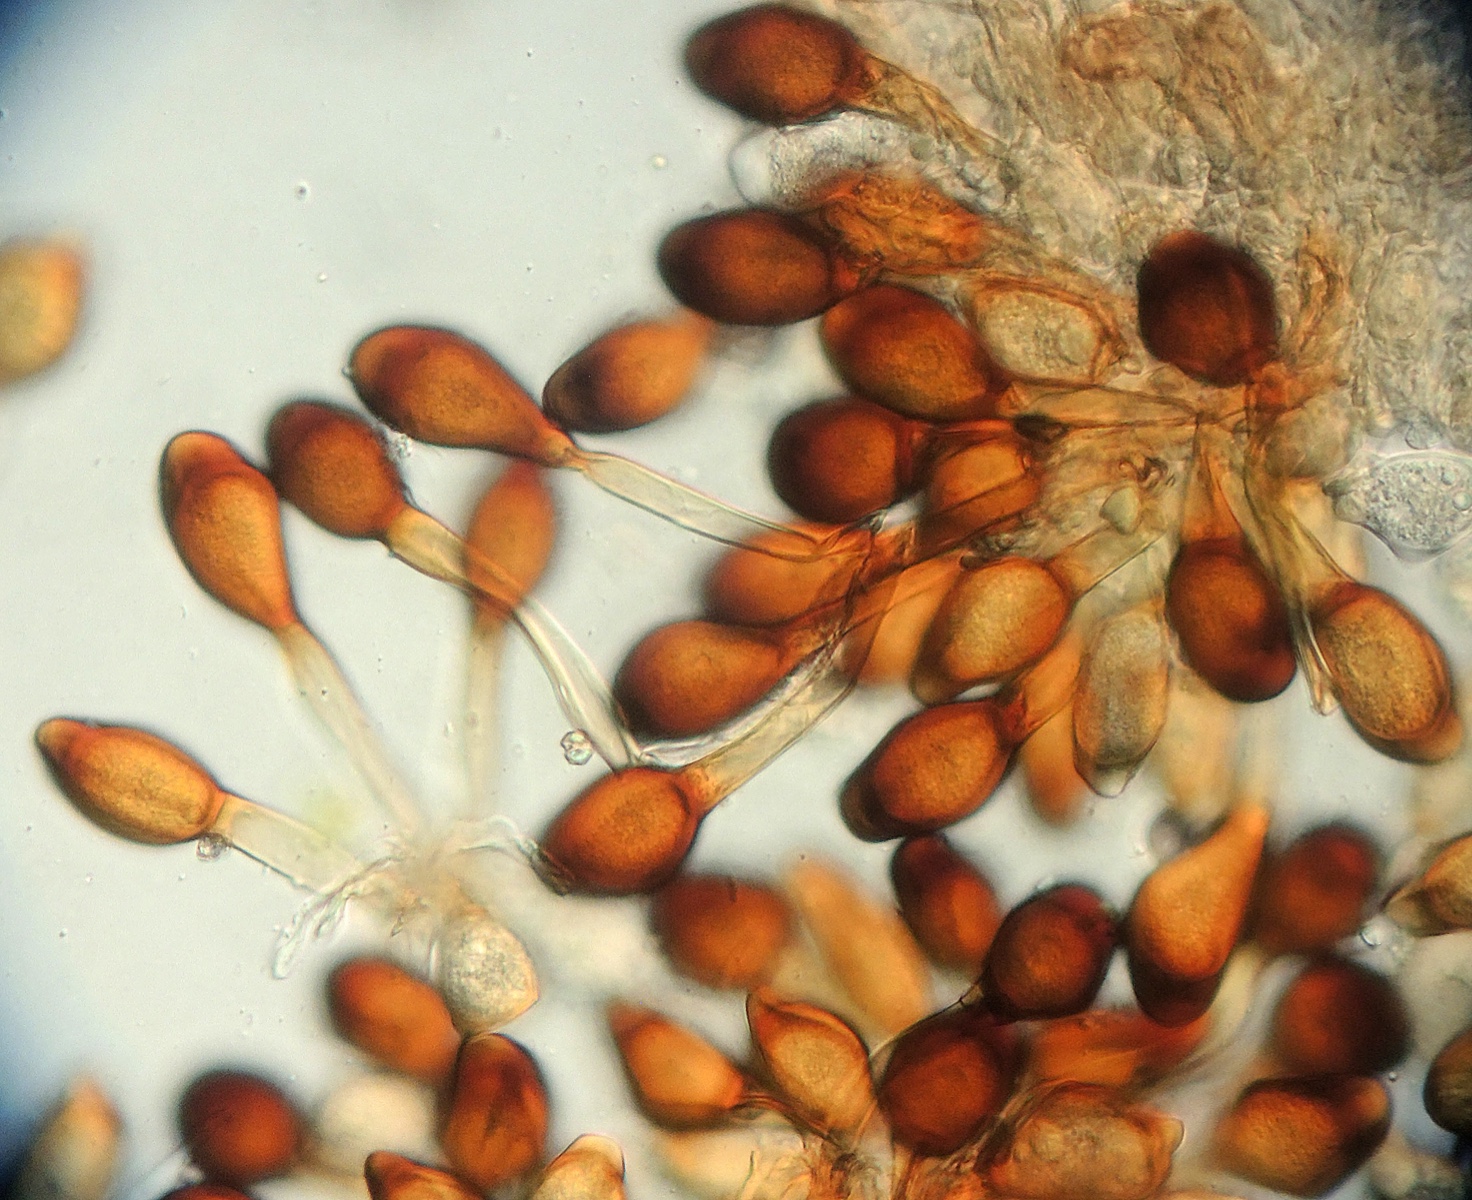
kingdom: Fungi
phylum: Basidiomycota
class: Pucciniomycetes
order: Pucciniales
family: Pucciniaceae
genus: Uromyces
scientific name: Uromyces viciae-fabae
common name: Broad bean rust
